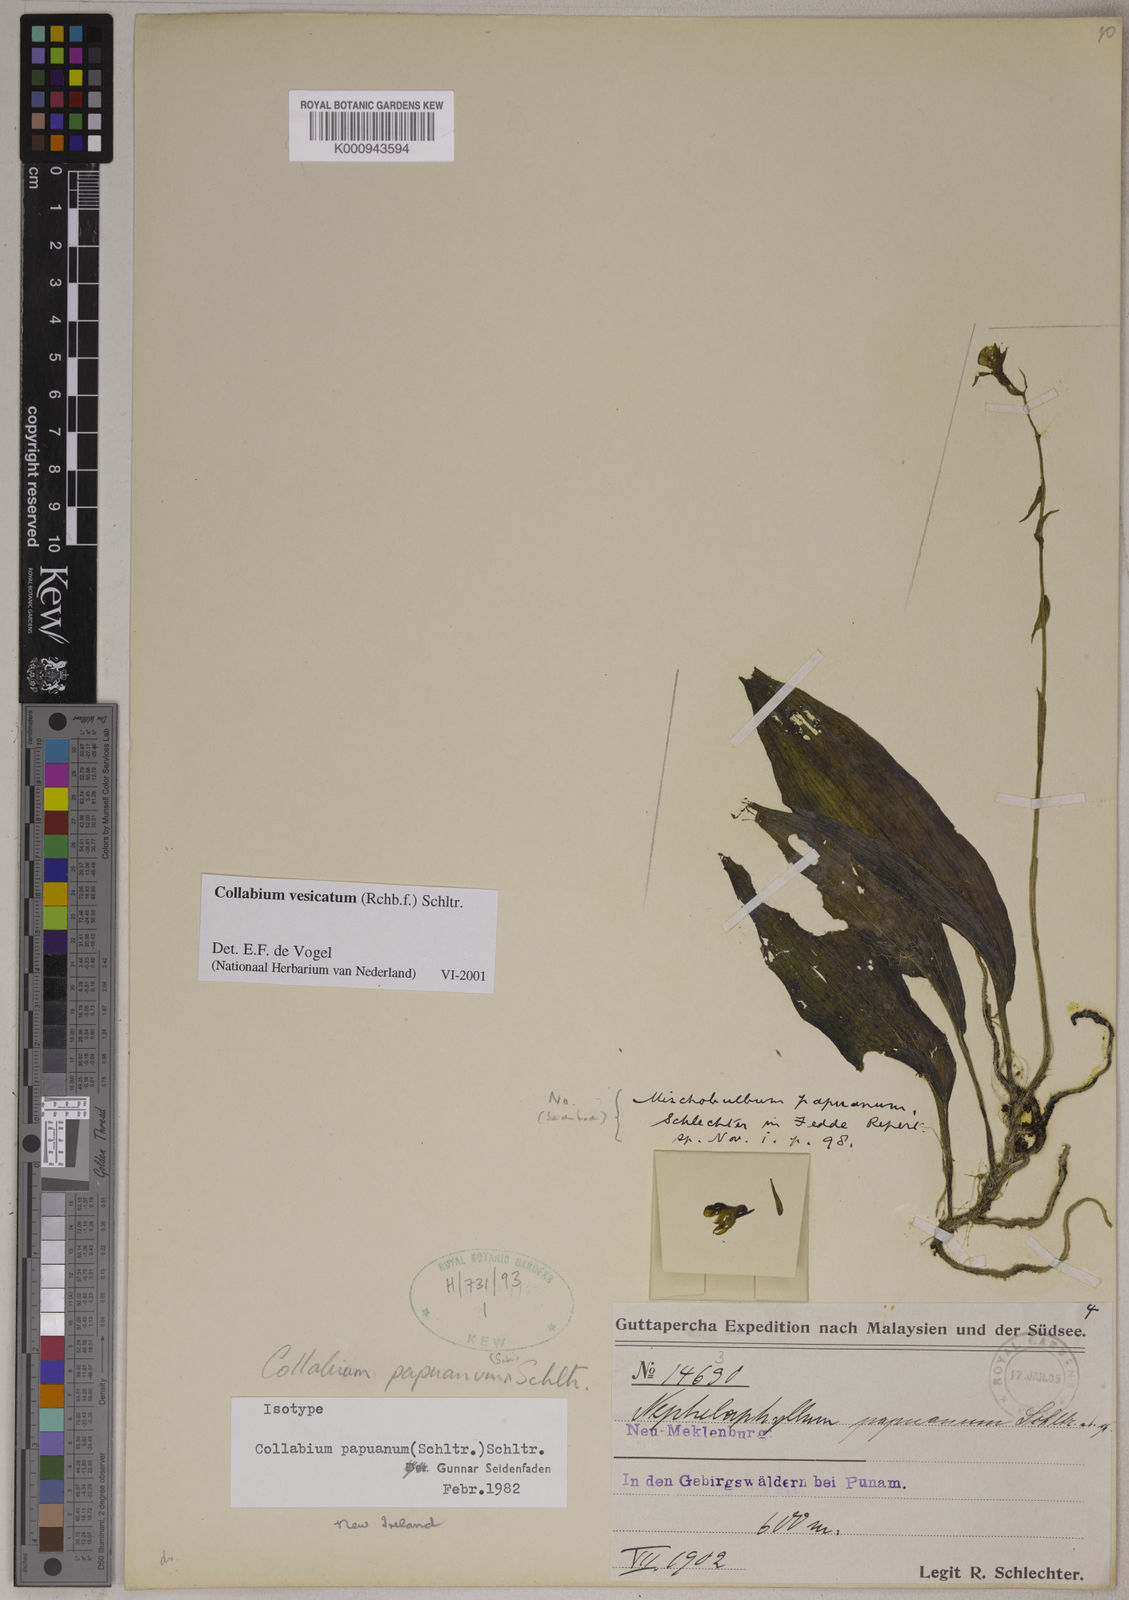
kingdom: Plantae
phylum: Tracheophyta
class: Liliopsida
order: Asparagales
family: Orchidaceae
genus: Collabium
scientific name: Collabium vesicatum
